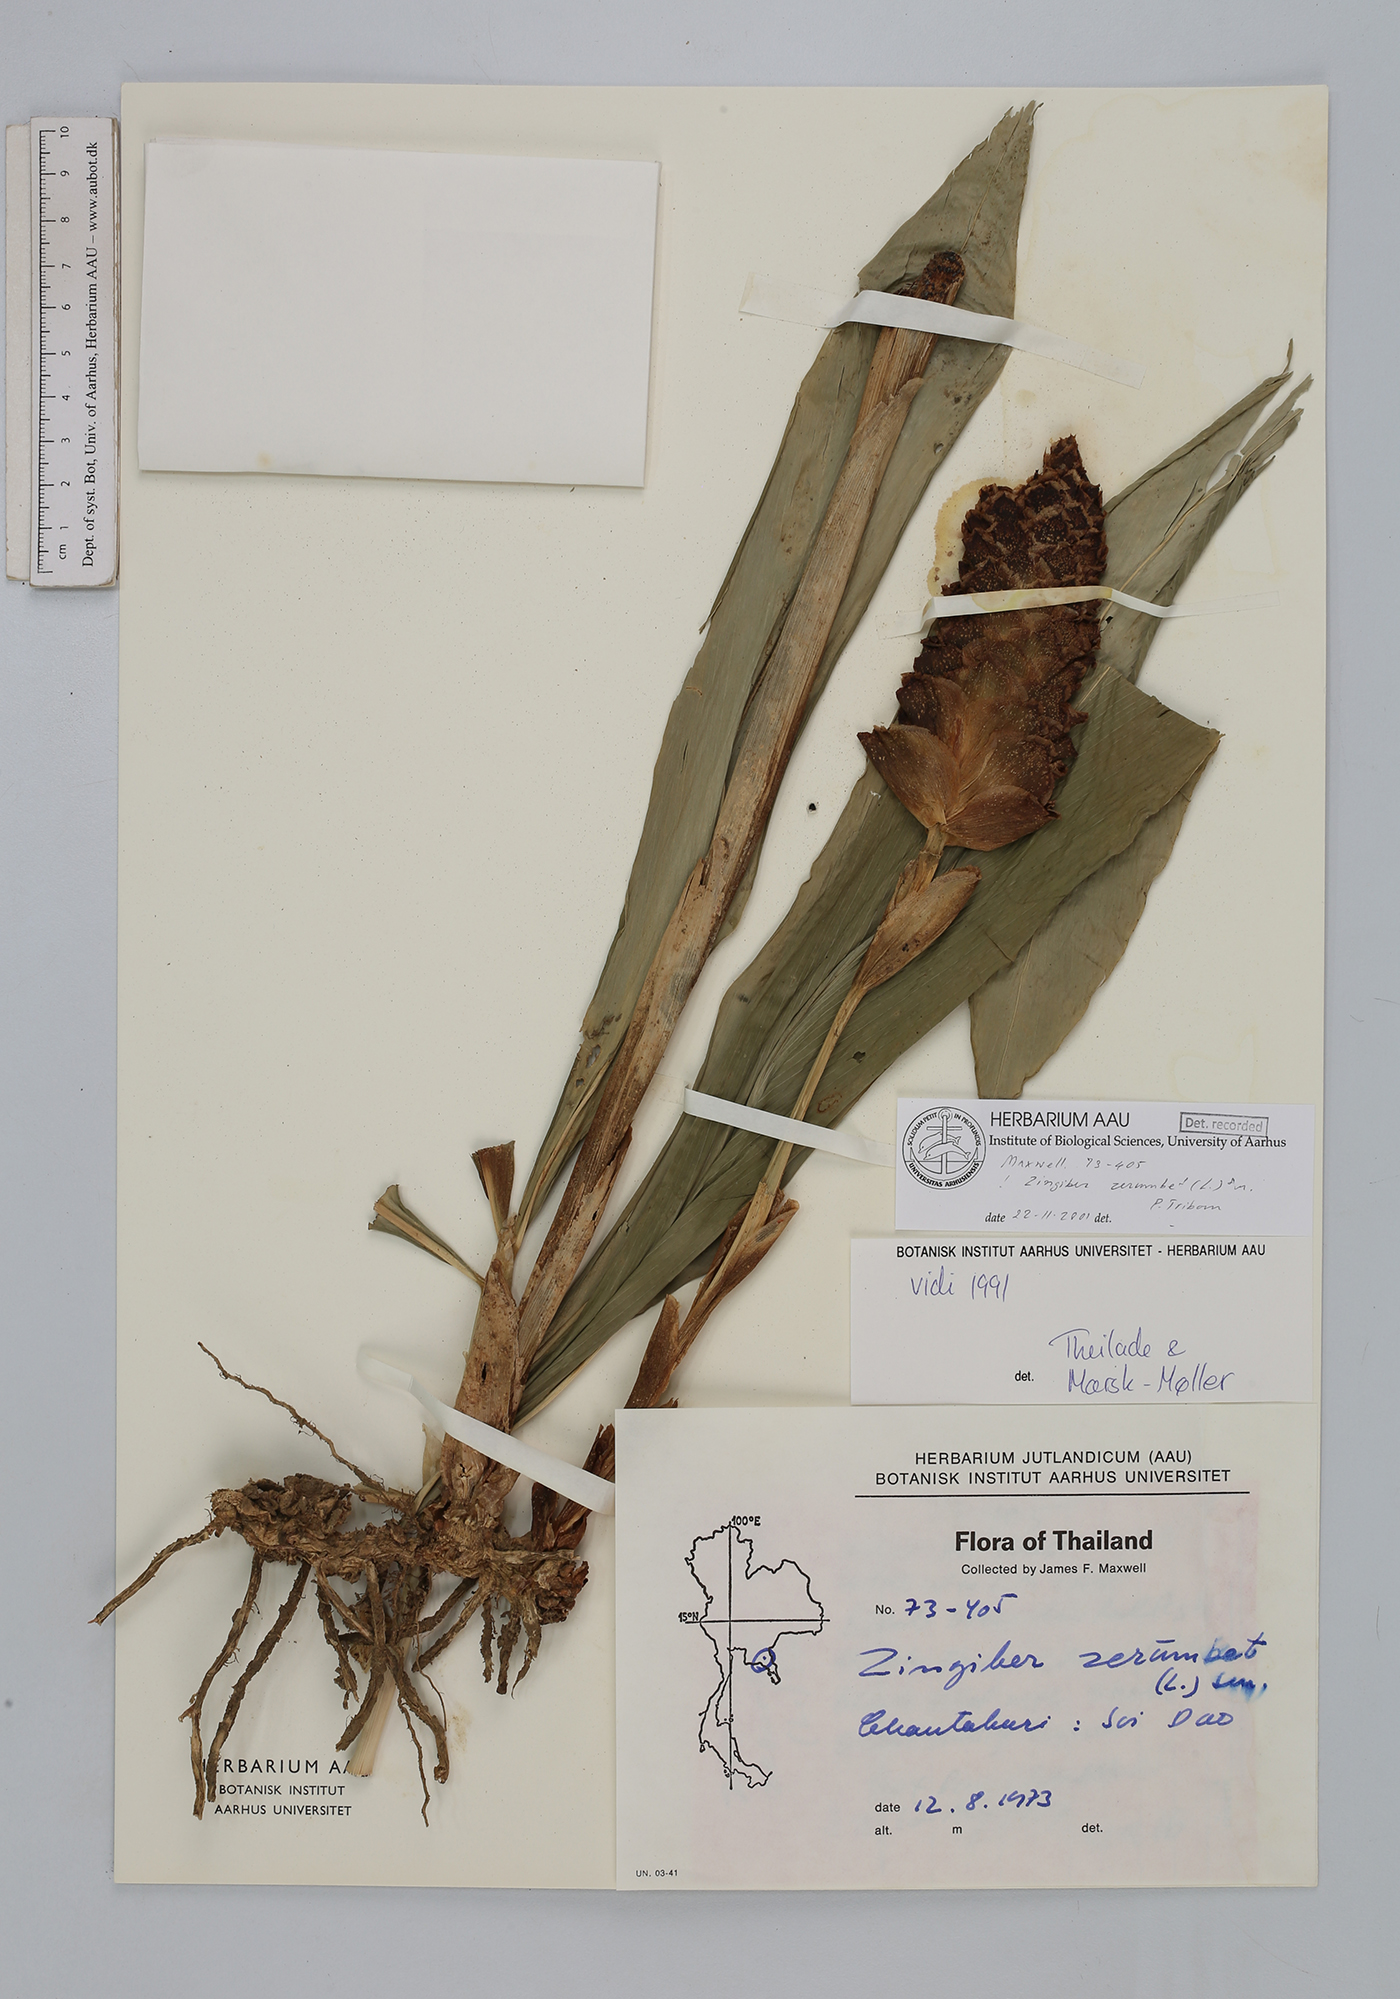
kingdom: Plantae
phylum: Tracheophyta
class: Liliopsida
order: Zingiberales
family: Zingiberaceae
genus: Zingiber
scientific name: Zingiber zerumbet
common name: Bitter ginger
